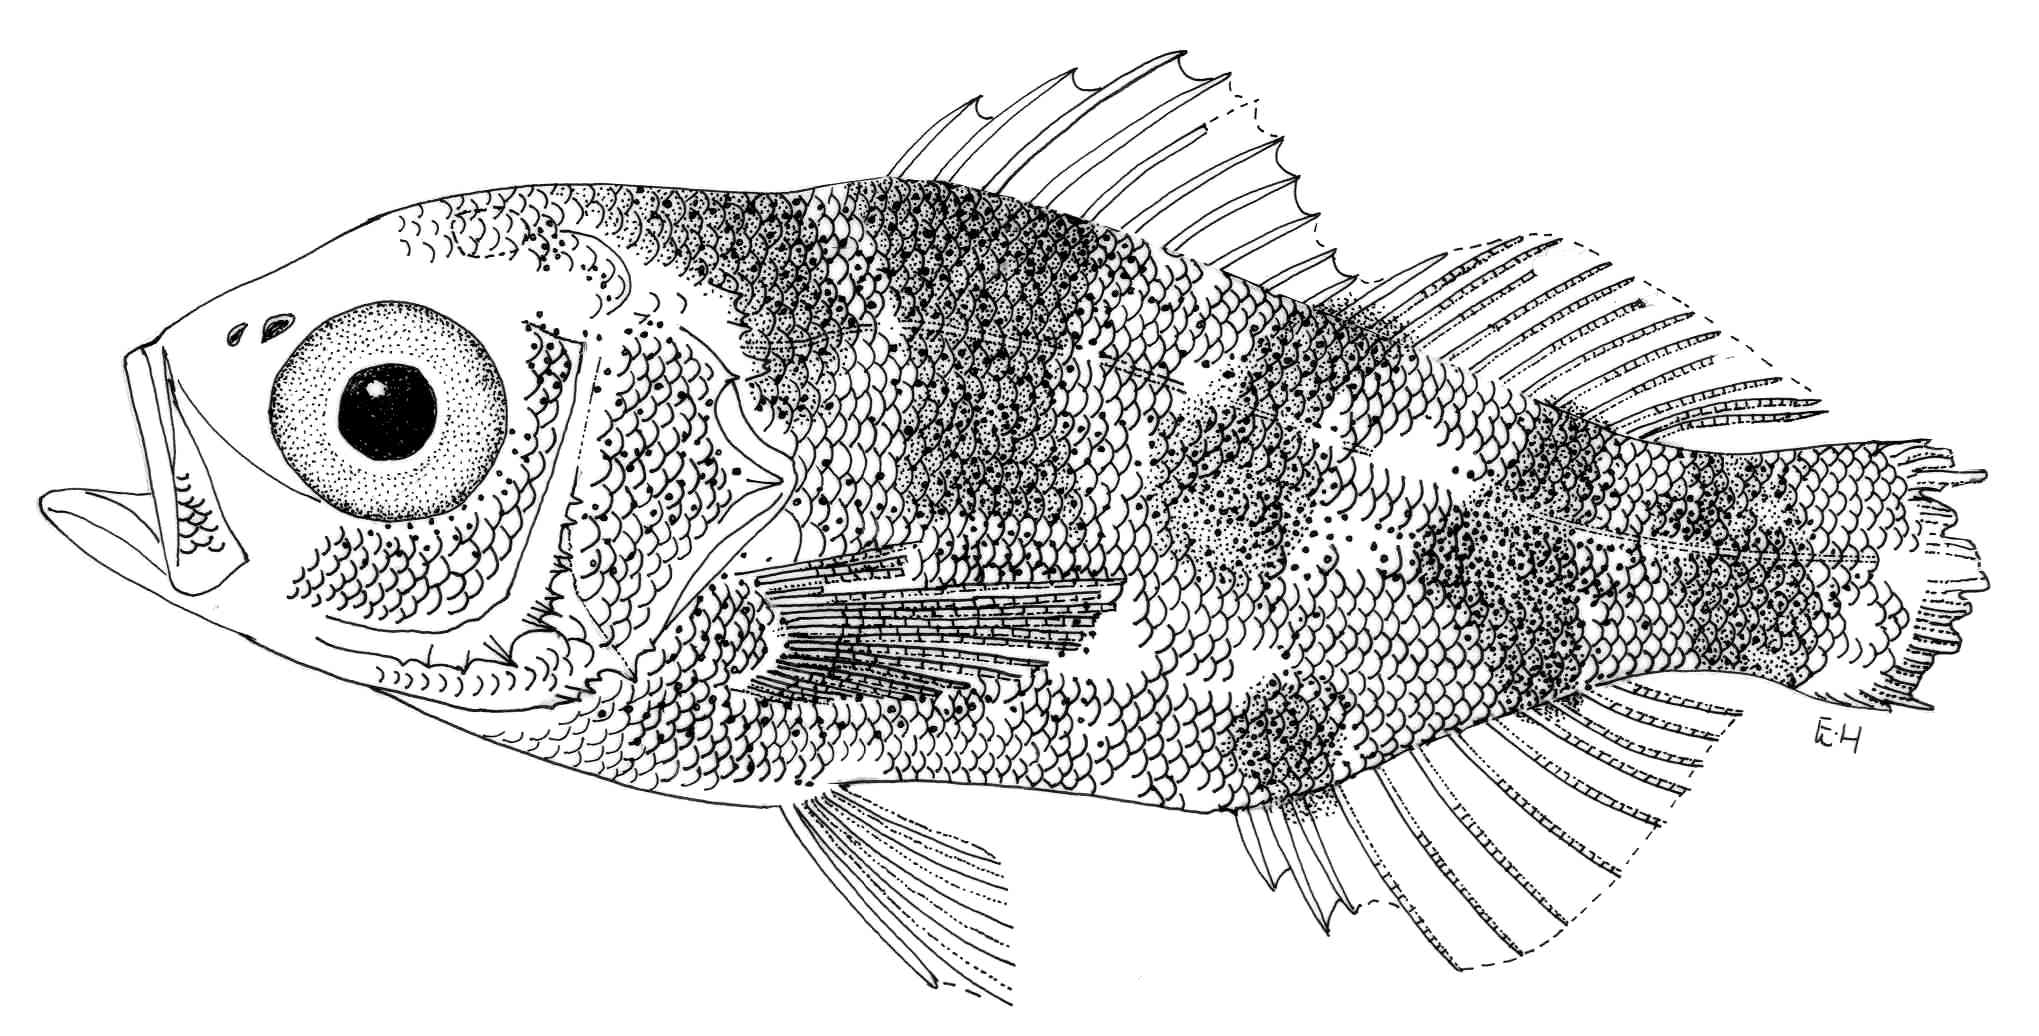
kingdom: Animalia
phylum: Chordata
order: Perciformes
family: Emmelichthyidae
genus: Erythrocles
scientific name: Erythrocles monodi
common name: Atlantic rubyfish
